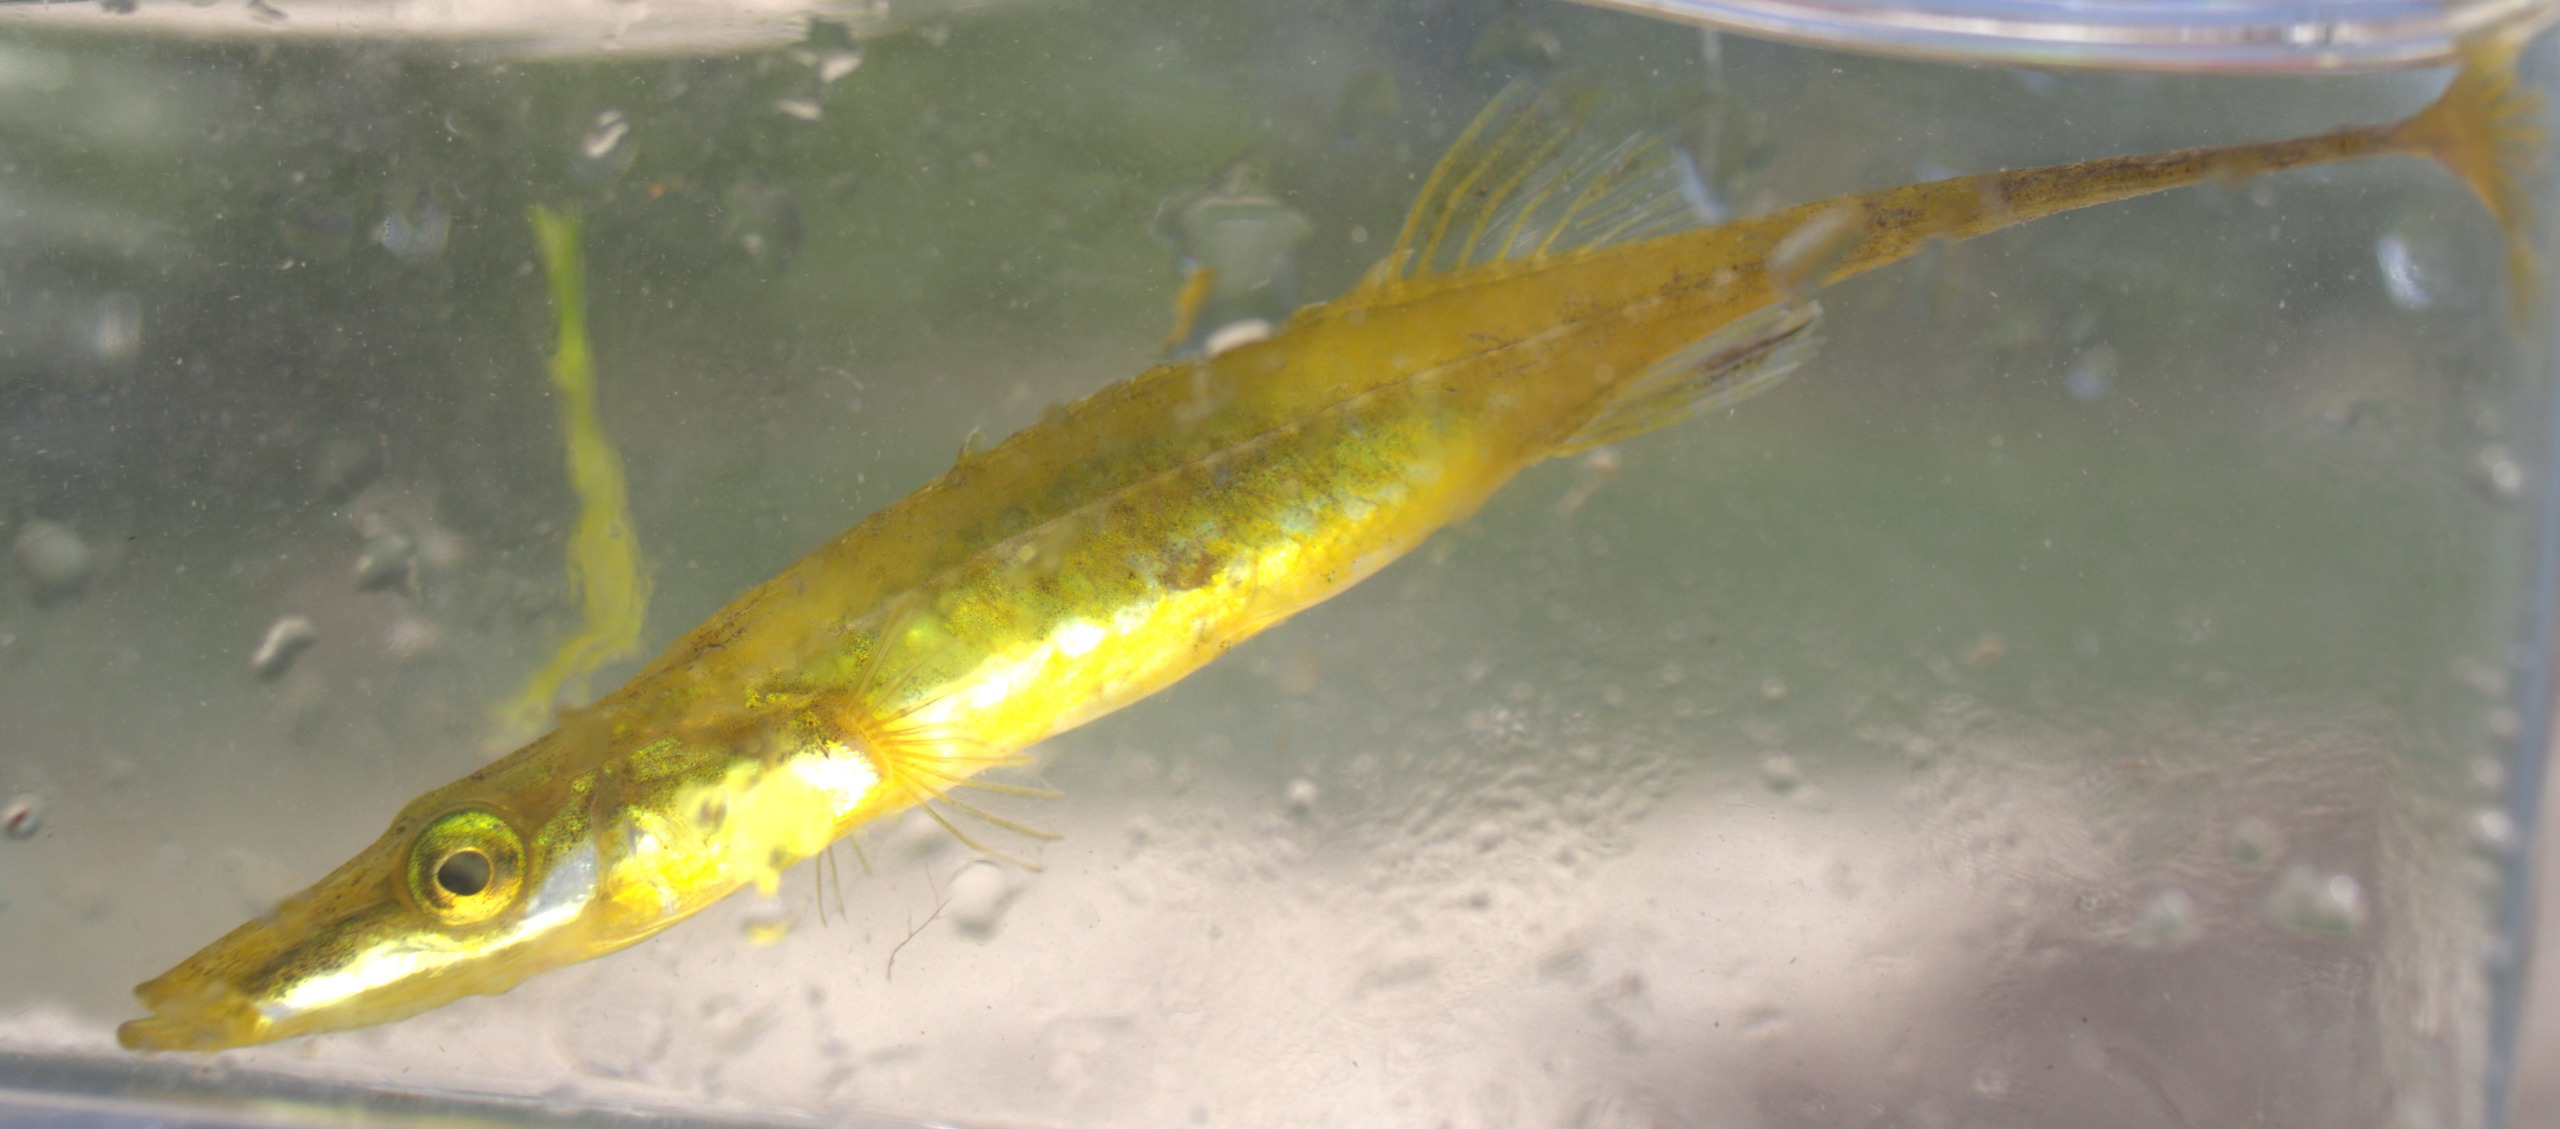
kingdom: Animalia
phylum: Chordata
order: Gasterosteiformes
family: Gasterosteidae
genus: Spinachia
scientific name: Spinachia spinachia
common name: Tangsnarre
